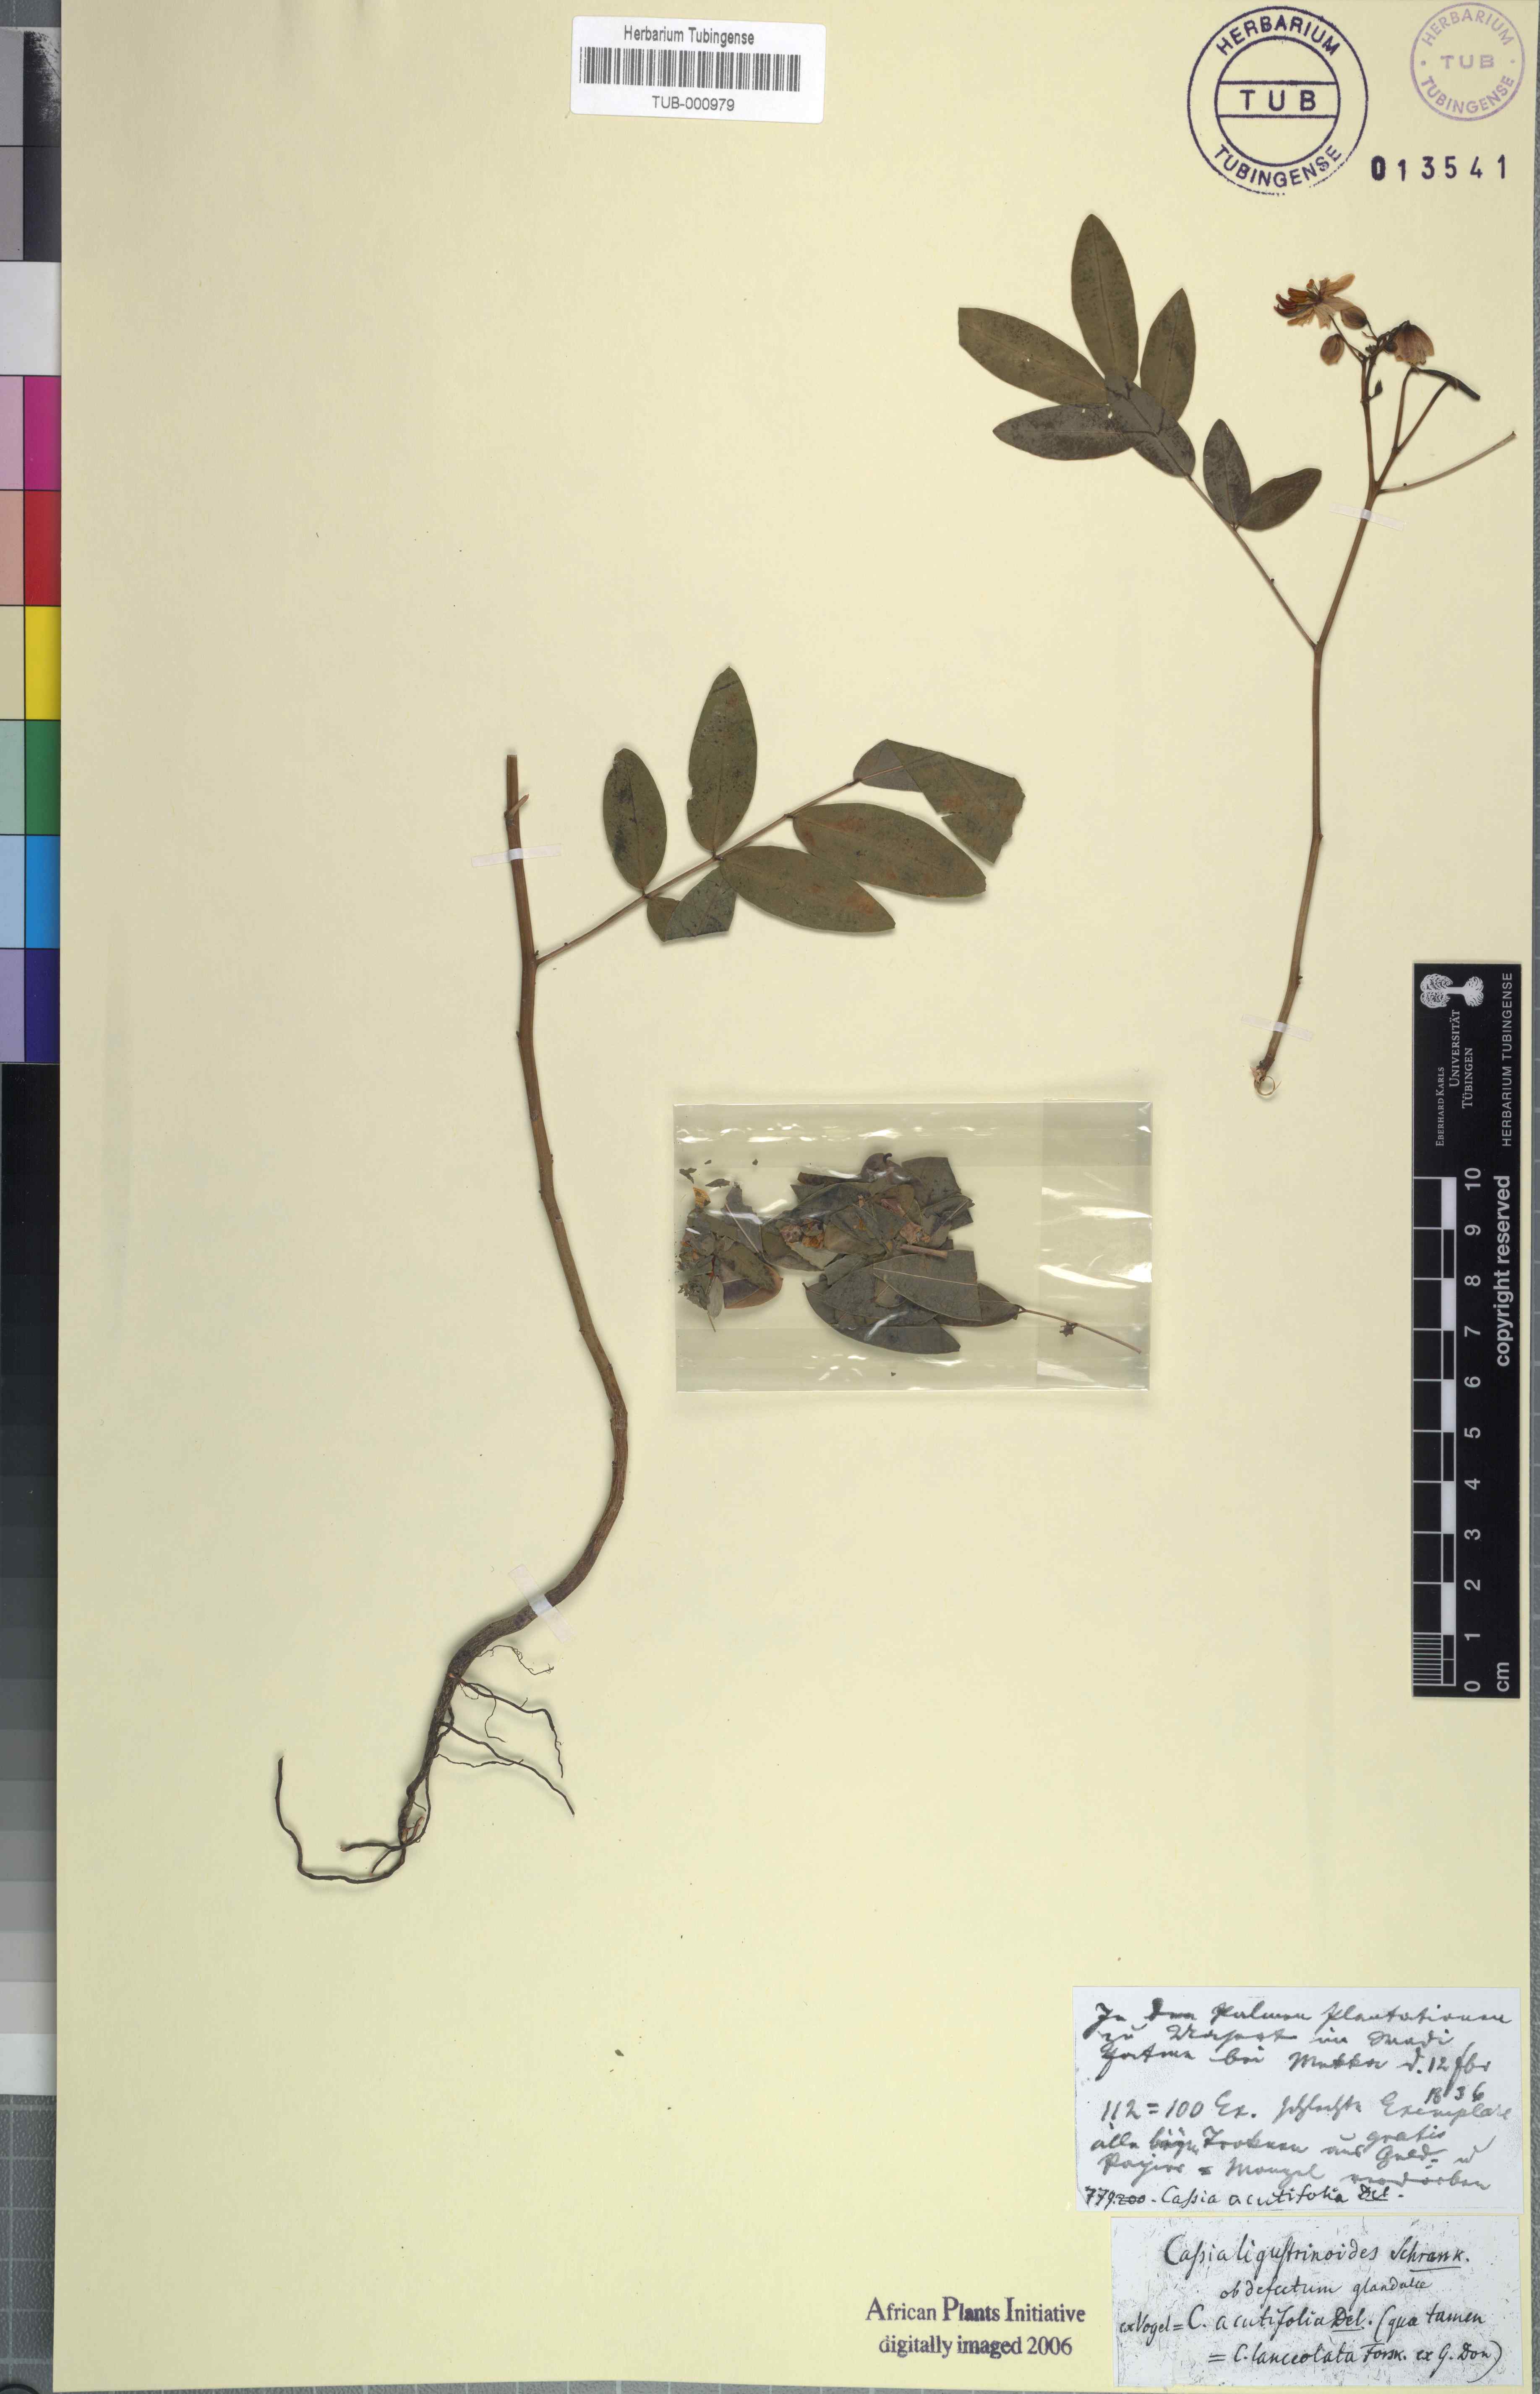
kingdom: Plantae
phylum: Tracheophyta
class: Magnoliopsida
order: Fabales
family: Fabaceae
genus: Senna
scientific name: Senna alexandrina
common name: True senna
